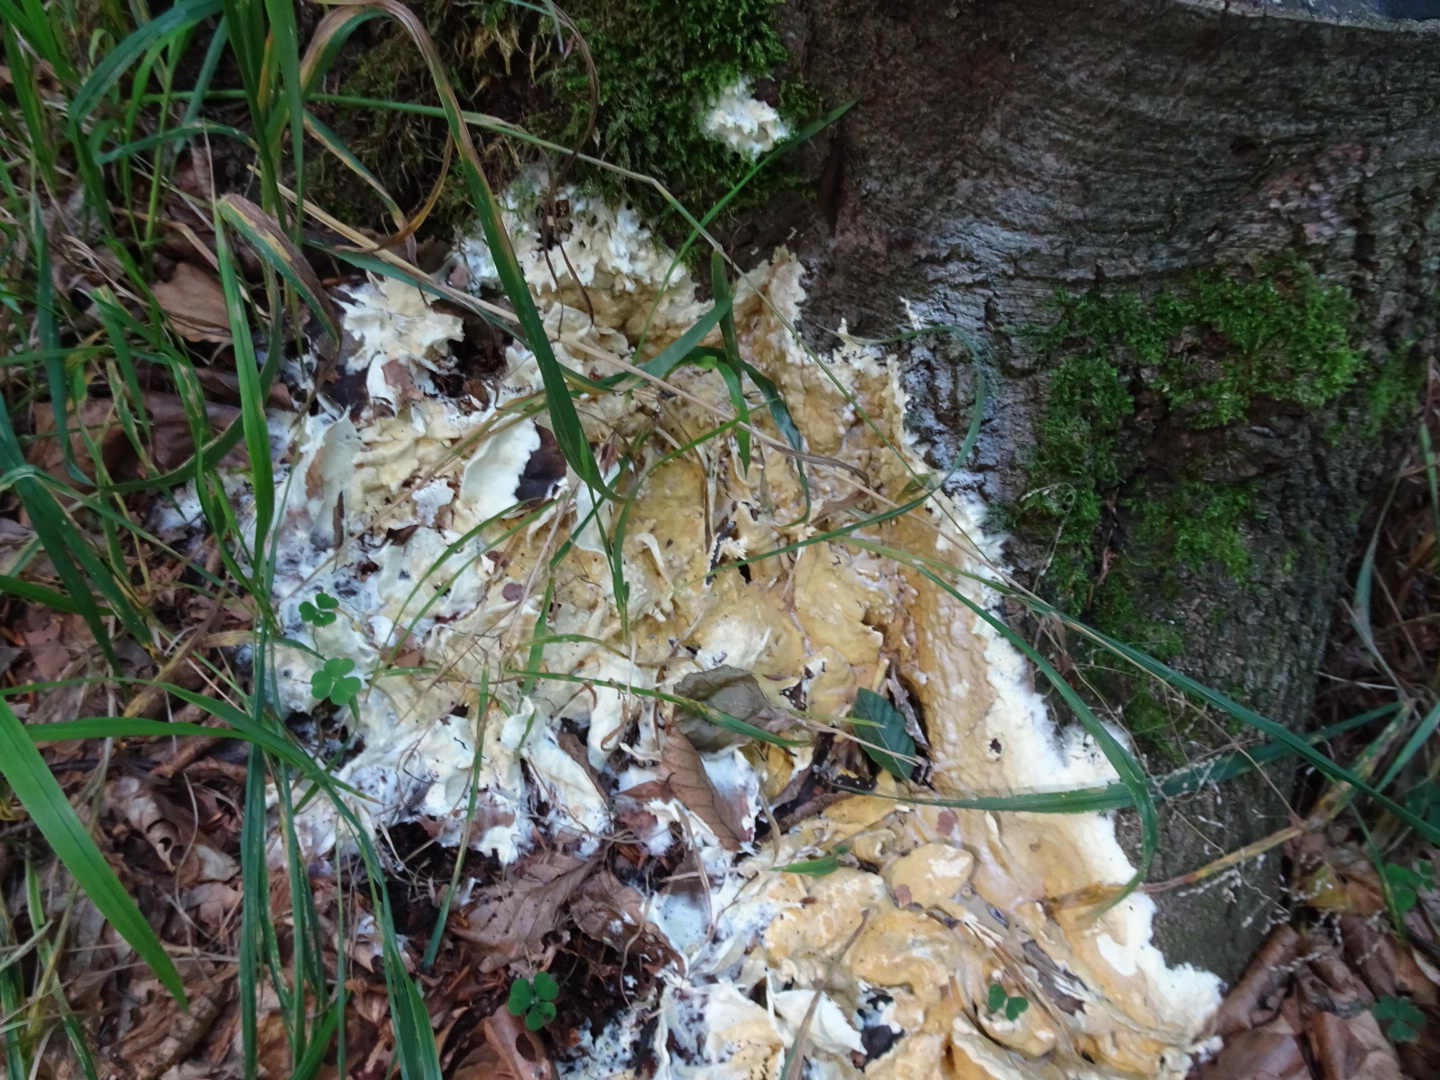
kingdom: Fungi
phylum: Ascomycota
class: Sordariomycetes
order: Hypocreales
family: Hypocreaceae
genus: Trichoderma
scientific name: Trichoderma citrinum
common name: udbredt kødkerne
